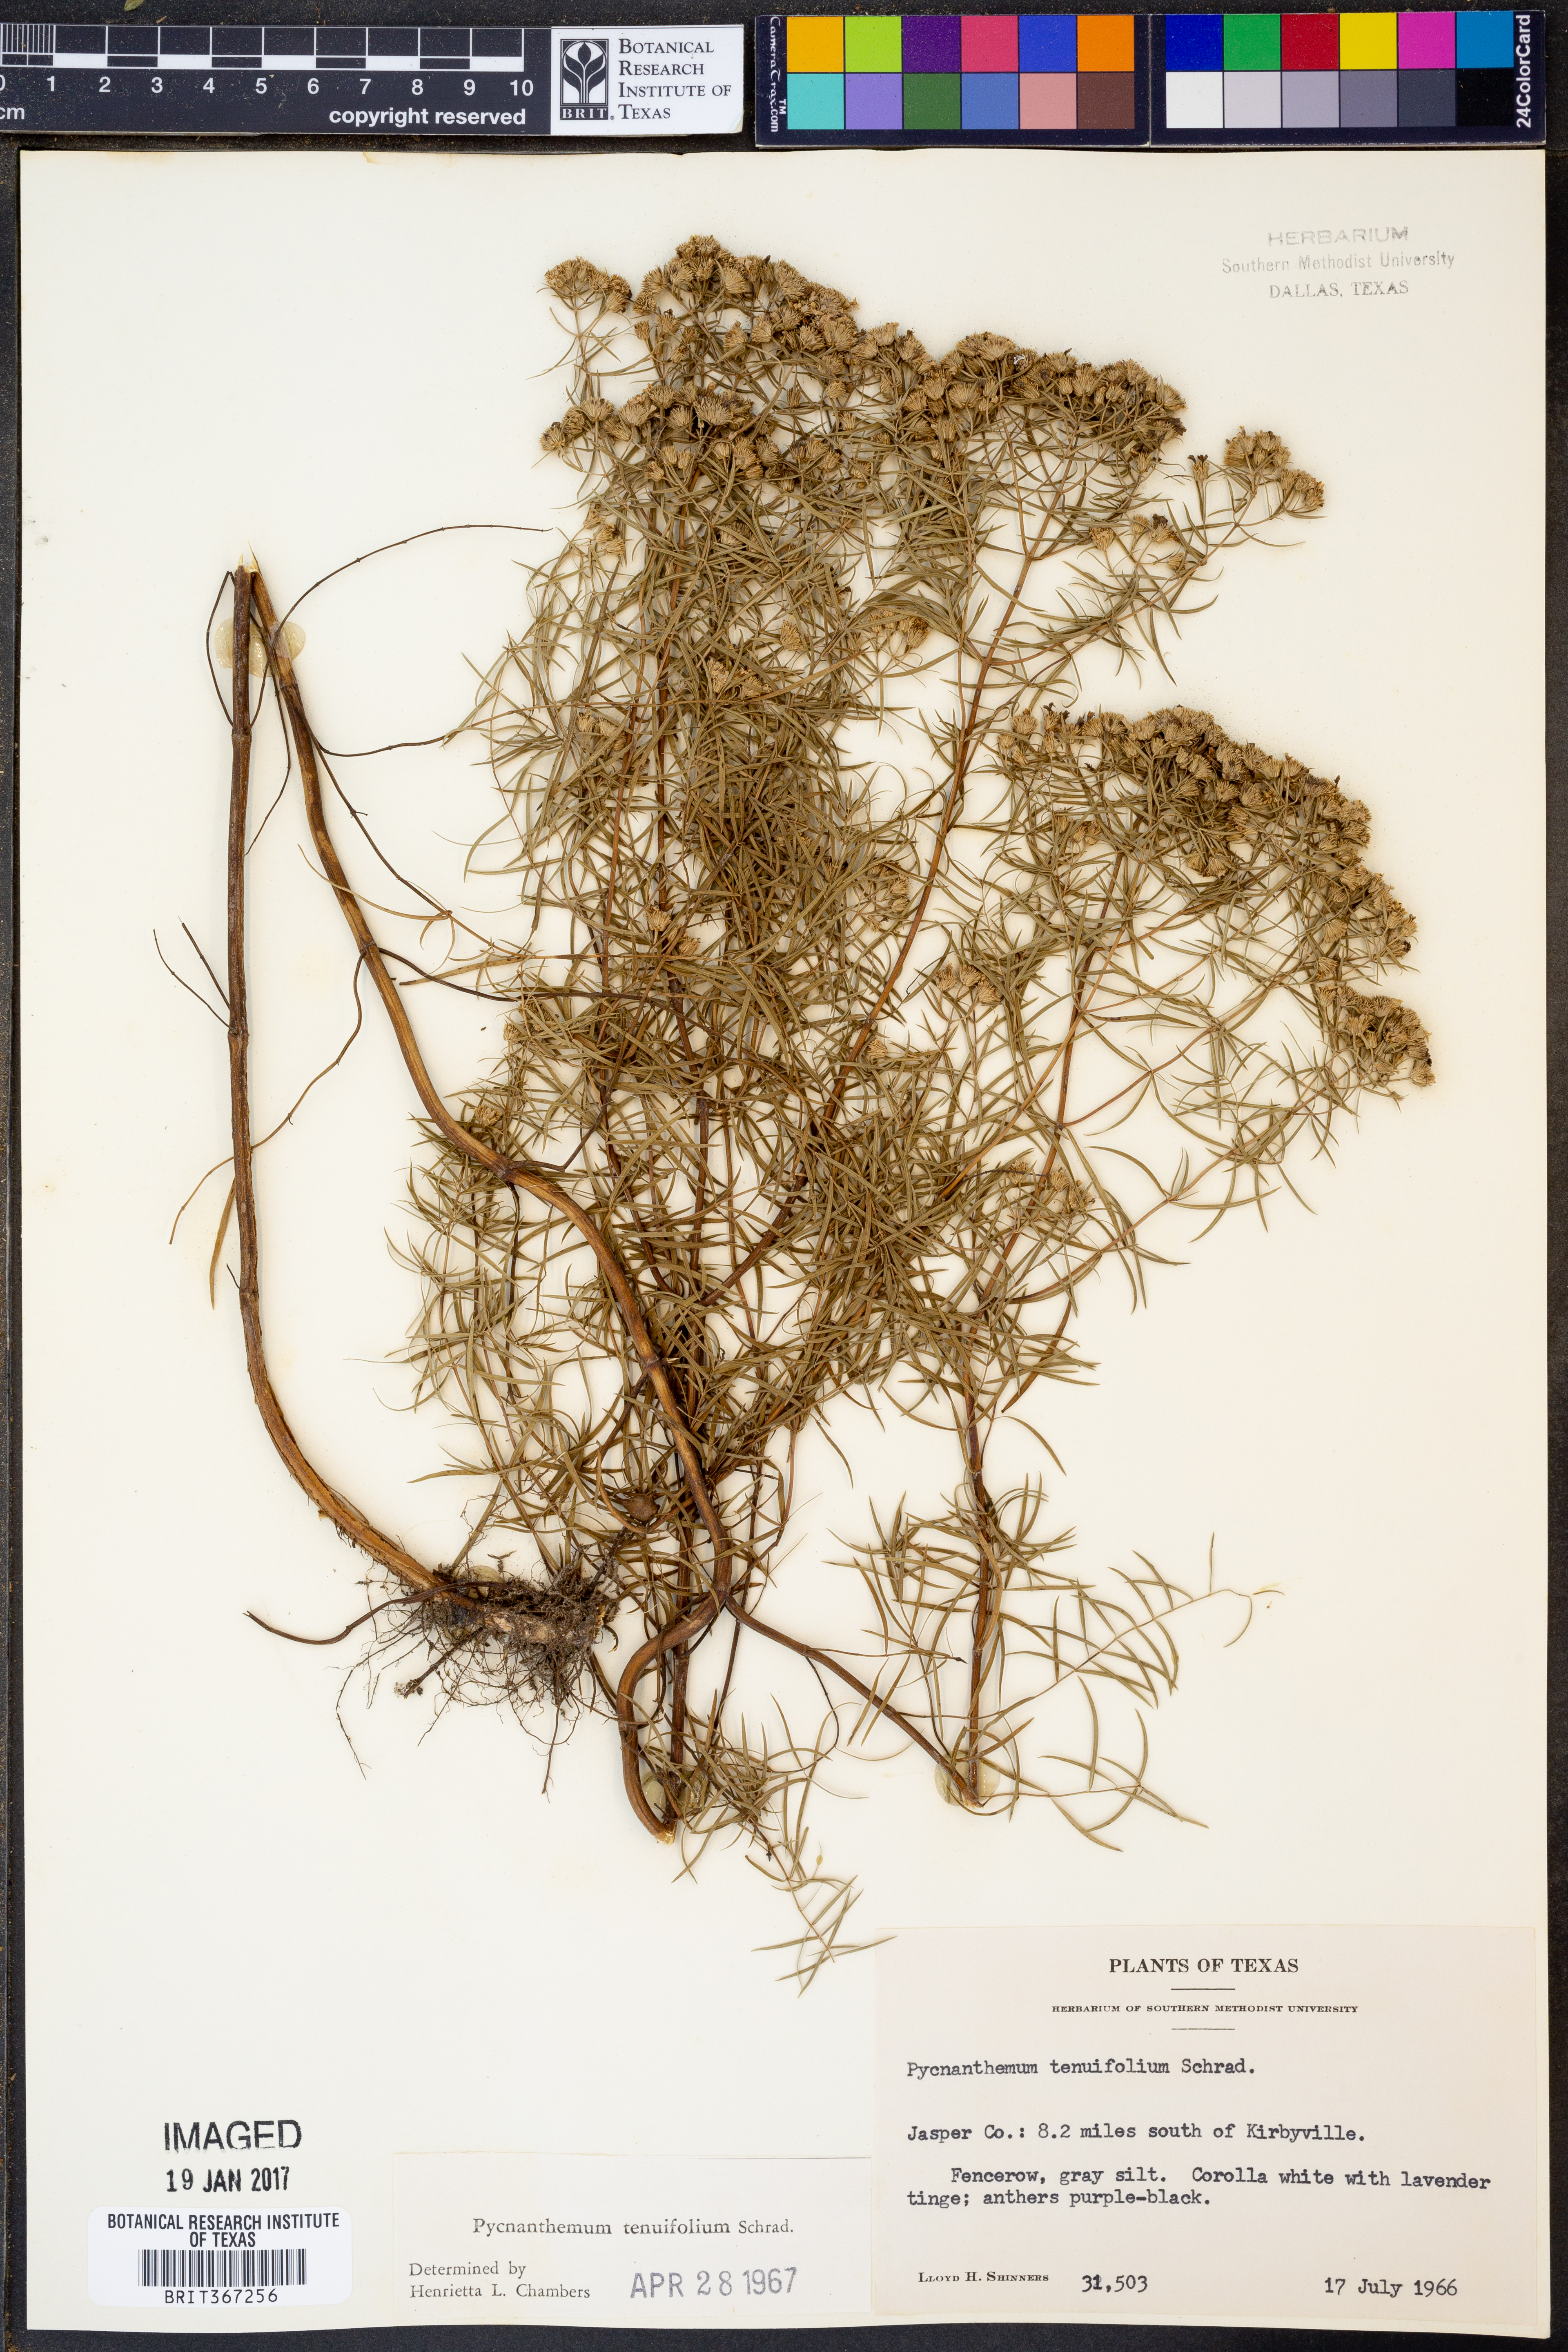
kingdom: Plantae
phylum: Tracheophyta
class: Magnoliopsida
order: Lamiales
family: Lamiaceae
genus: Pycnanthemum
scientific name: Pycnanthemum tenuifolium
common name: Narrow-leaf mountain-mint
